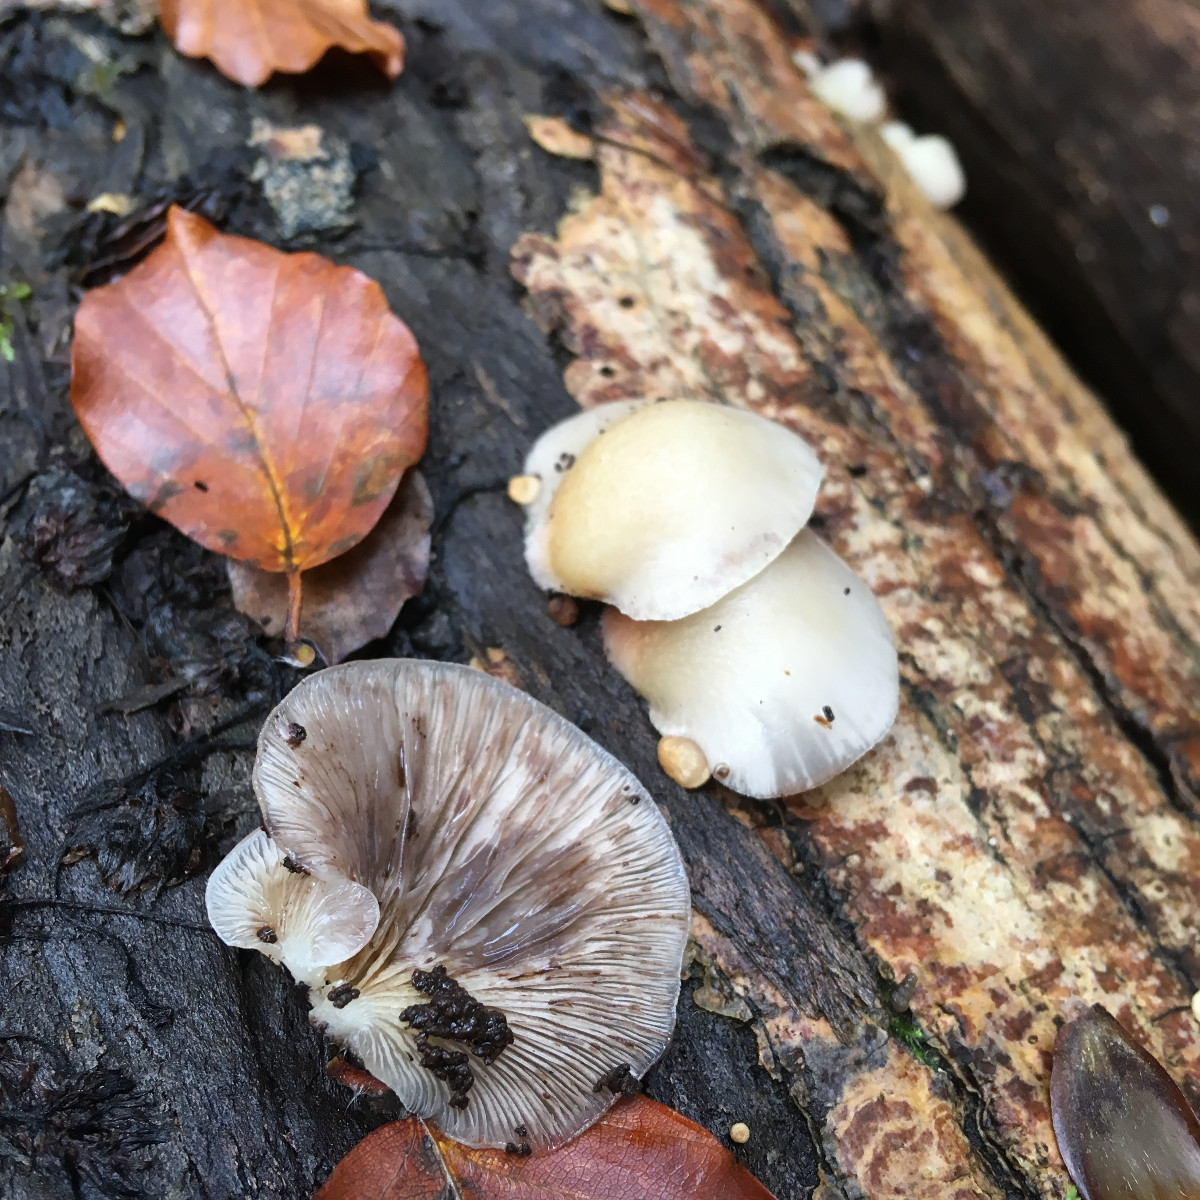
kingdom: Fungi
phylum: Basidiomycota
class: Agaricomycetes
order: Agaricales
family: Crepidotaceae
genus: Crepidotus
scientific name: Crepidotus mollis
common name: blød muslingesvamp
